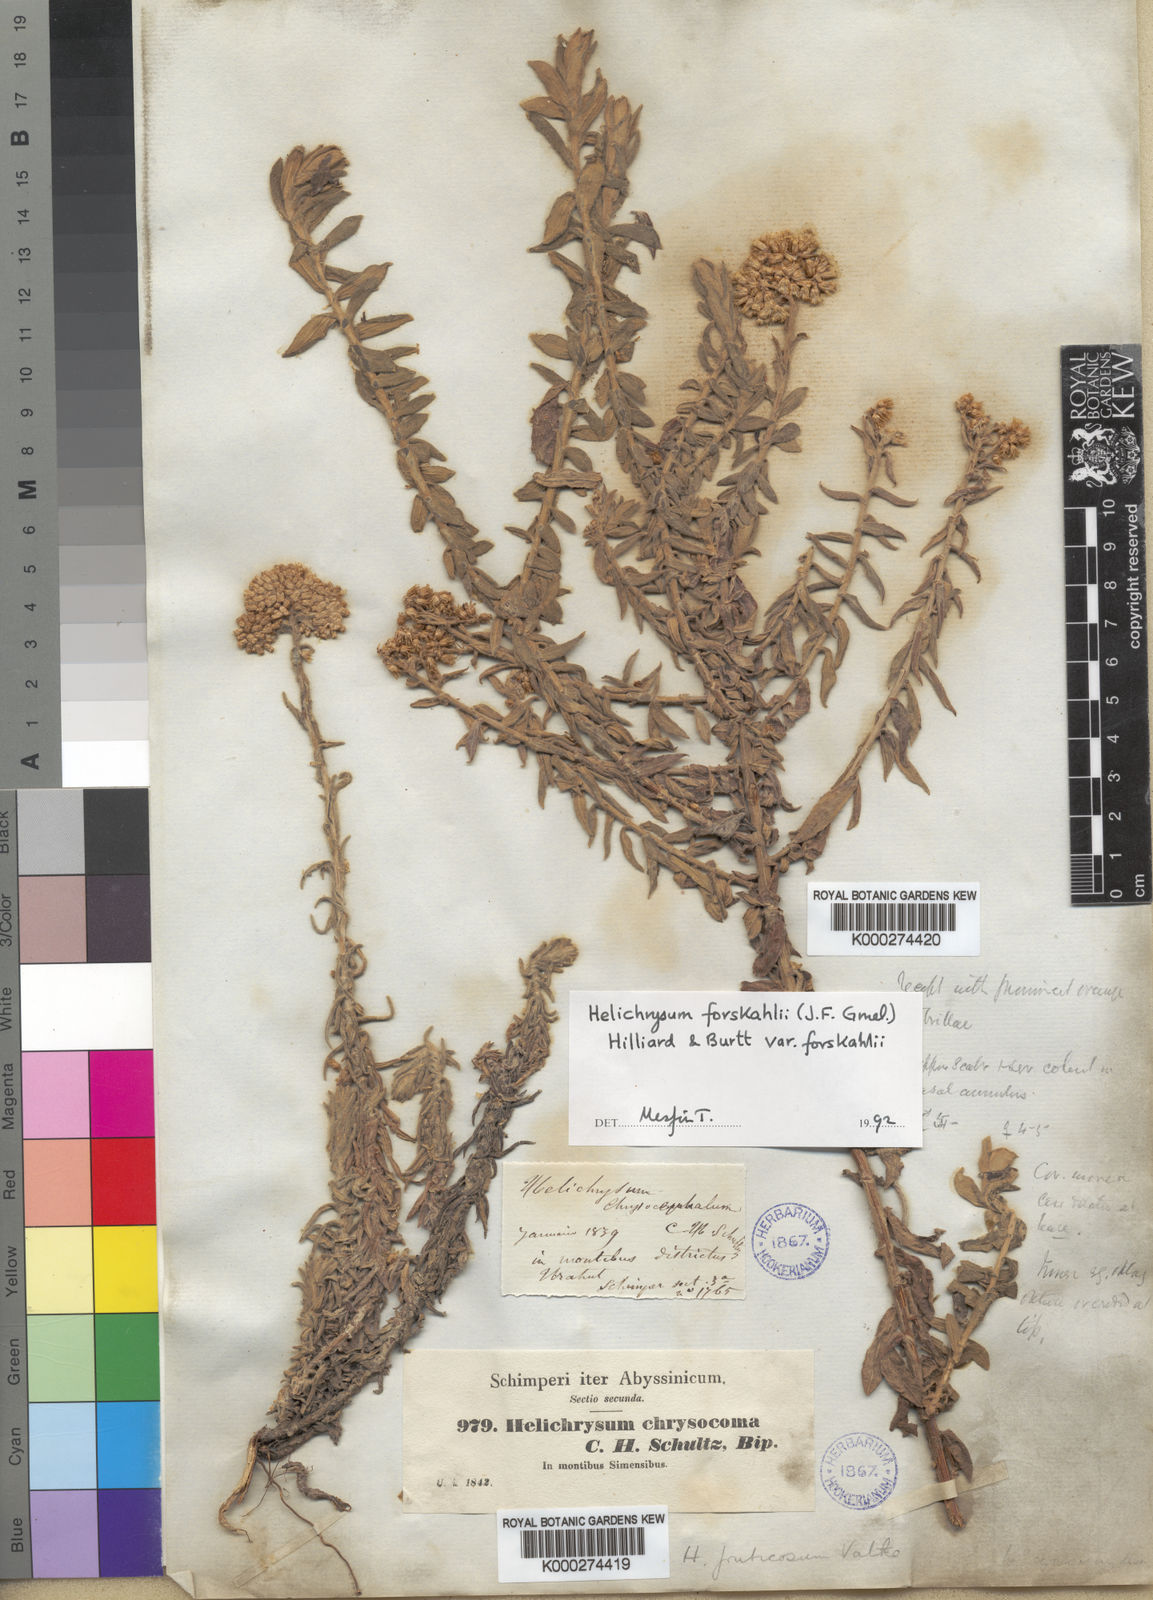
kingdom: Plantae
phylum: Tracheophyta
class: Magnoliopsida
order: Asterales
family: Asteraceae
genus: Helichrysum
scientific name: Helichrysum forskahlii
